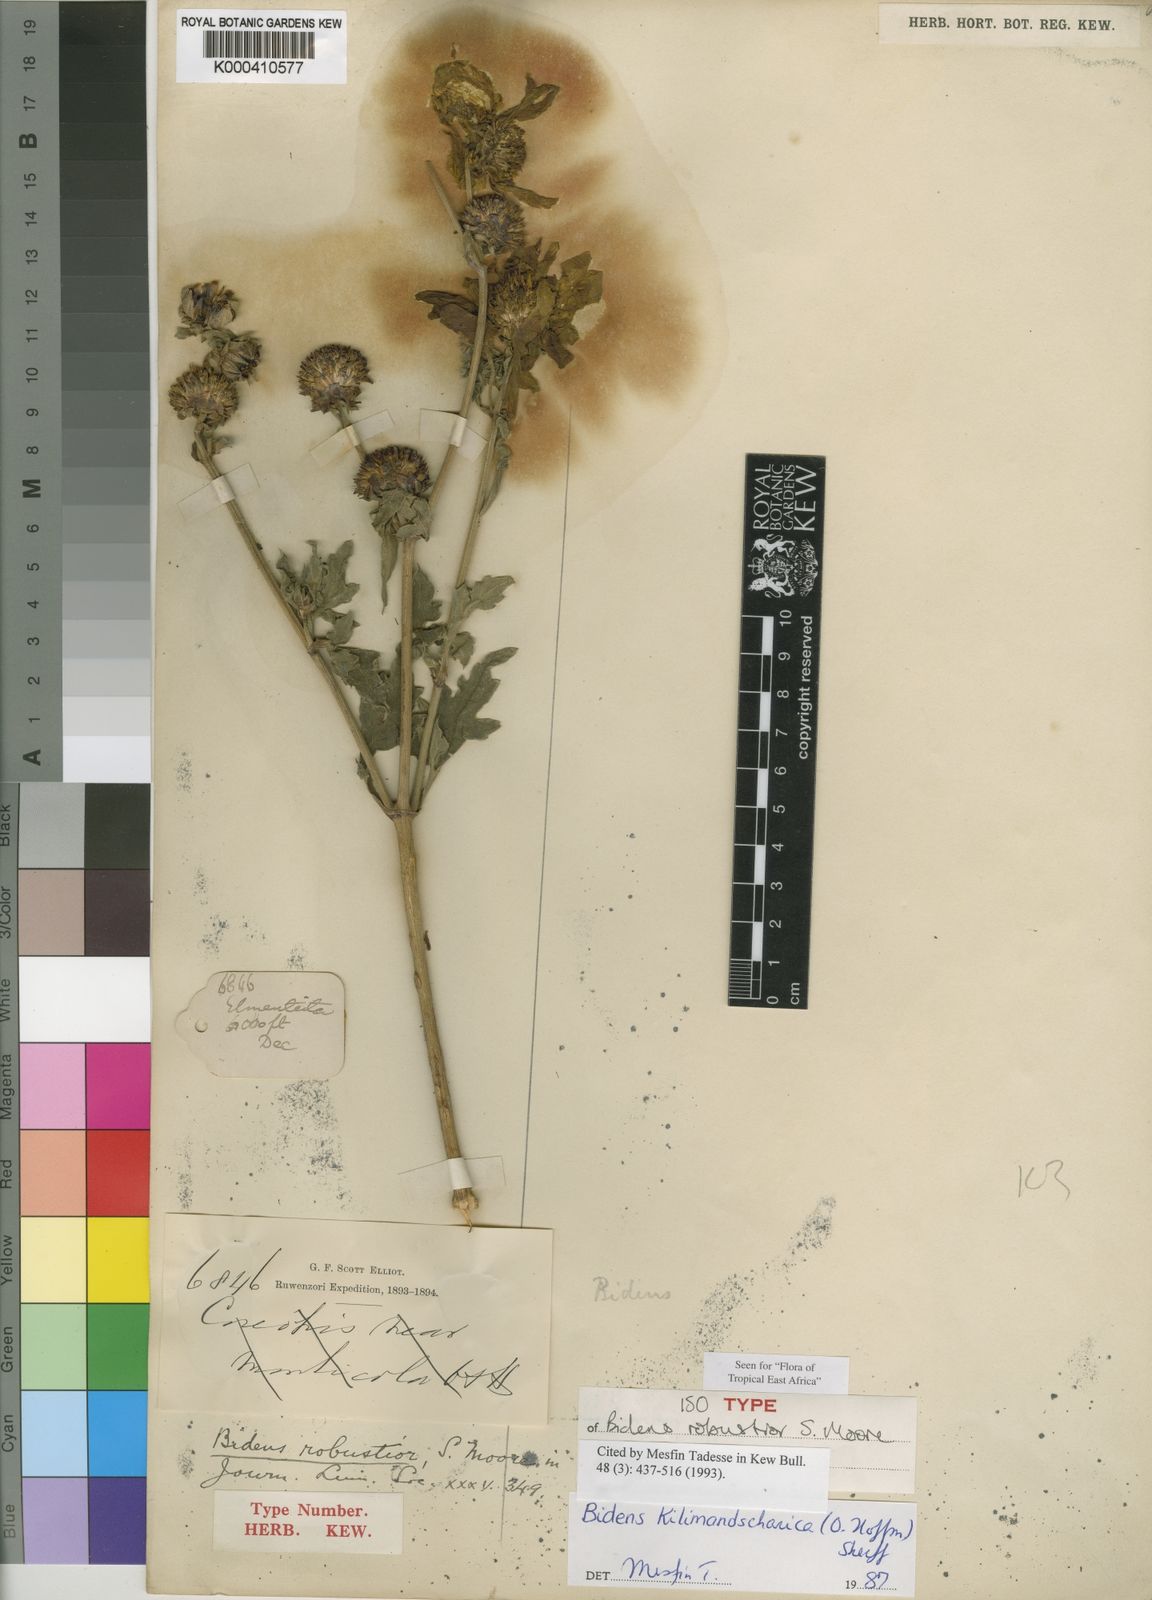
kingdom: Plantae
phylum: Tracheophyta
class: Magnoliopsida
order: Asterales
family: Asteraceae
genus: Bidens
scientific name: Bidens kilimandscharica
